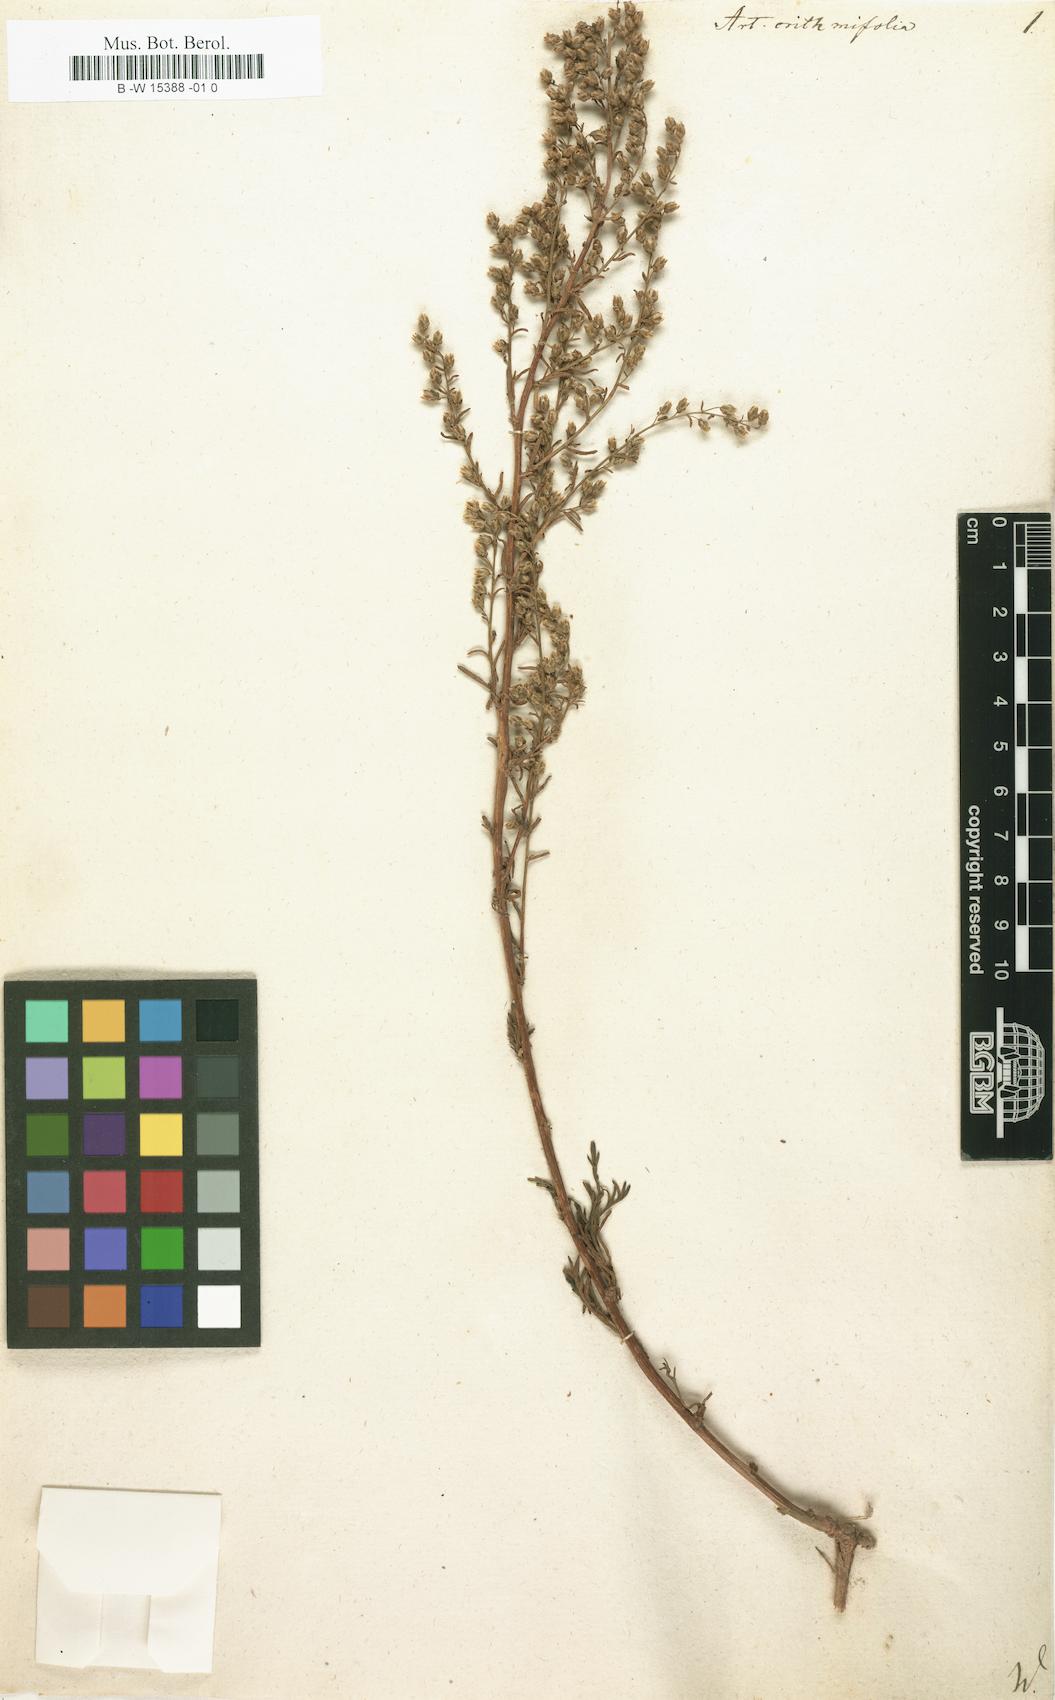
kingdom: Plantae
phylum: Tracheophyta
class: Magnoliopsida
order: Asterales
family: Asteraceae
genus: Artemisia
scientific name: Artemisia crithmifolia
